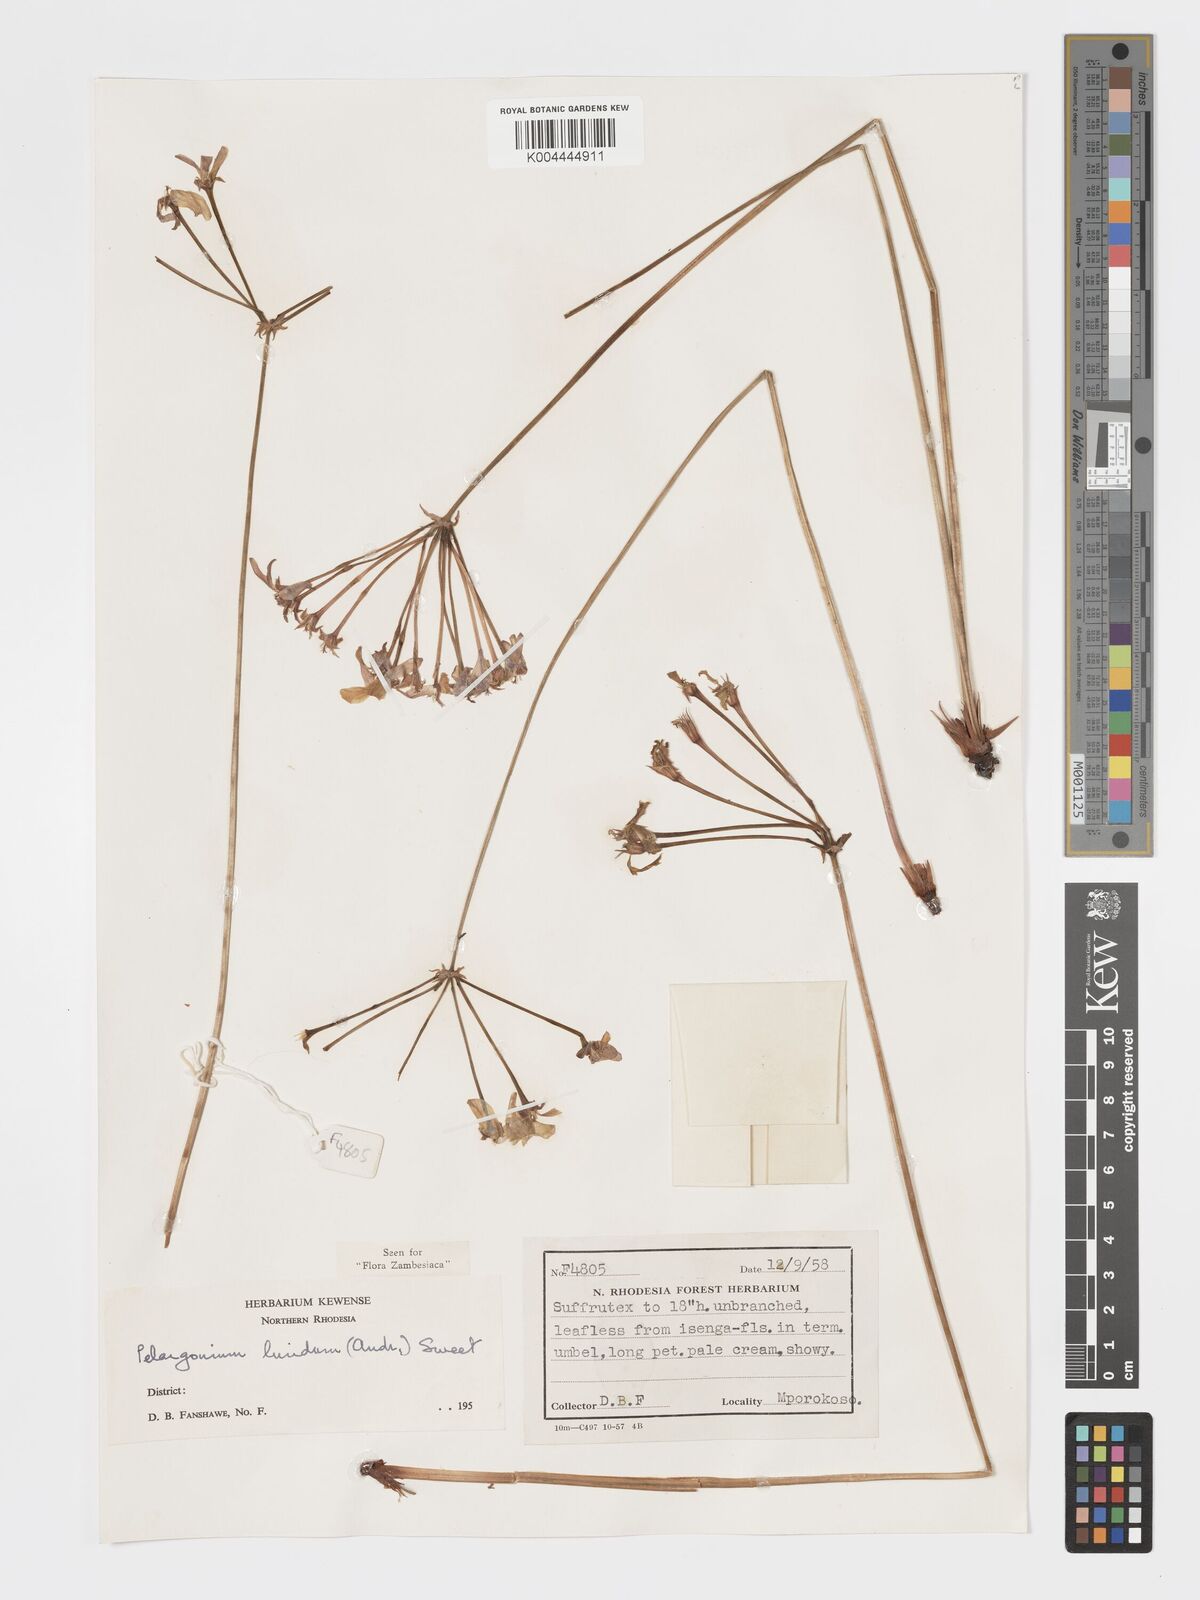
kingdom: Plantae
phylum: Tracheophyta
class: Magnoliopsida
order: Geraniales
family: Geraniaceae
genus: Pelargonium
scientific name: Pelargonium luridum
